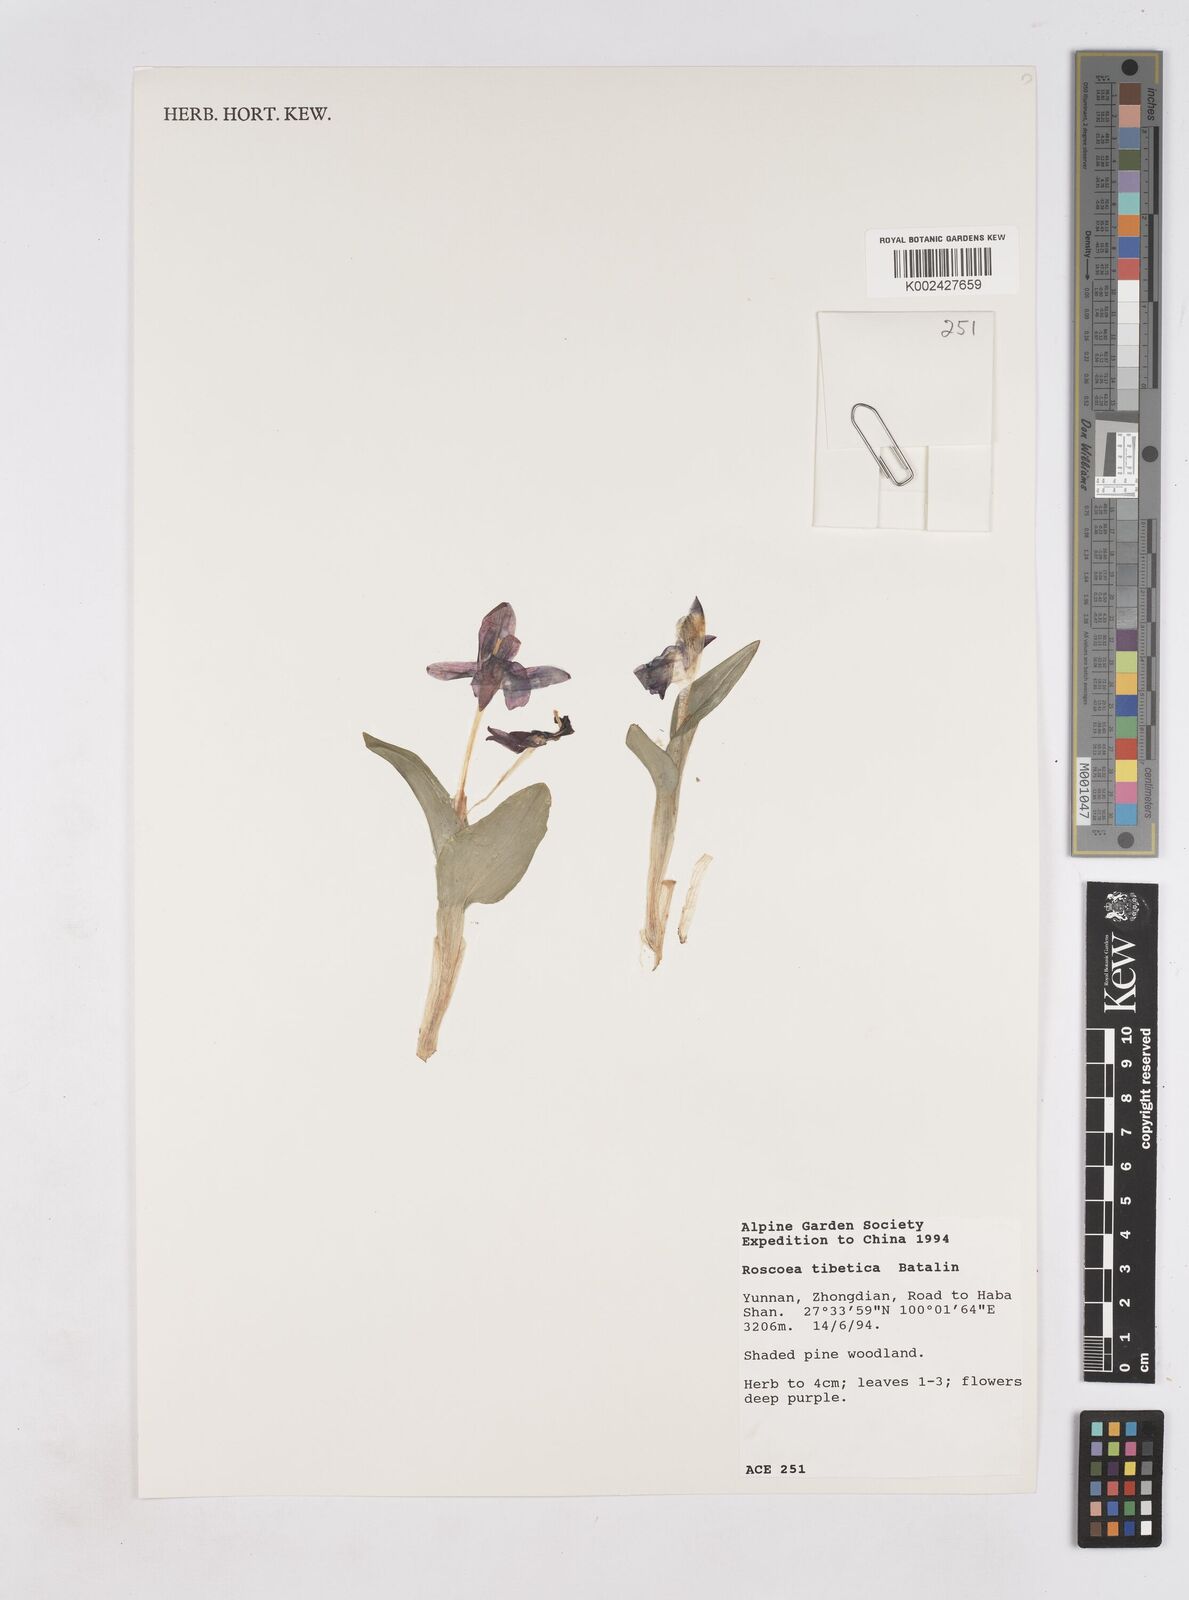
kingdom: Plantae
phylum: Tracheophyta
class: Liliopsida
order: Zingiberales
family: Zingiberaceae
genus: Roscoea
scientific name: Roscoea tibetica
